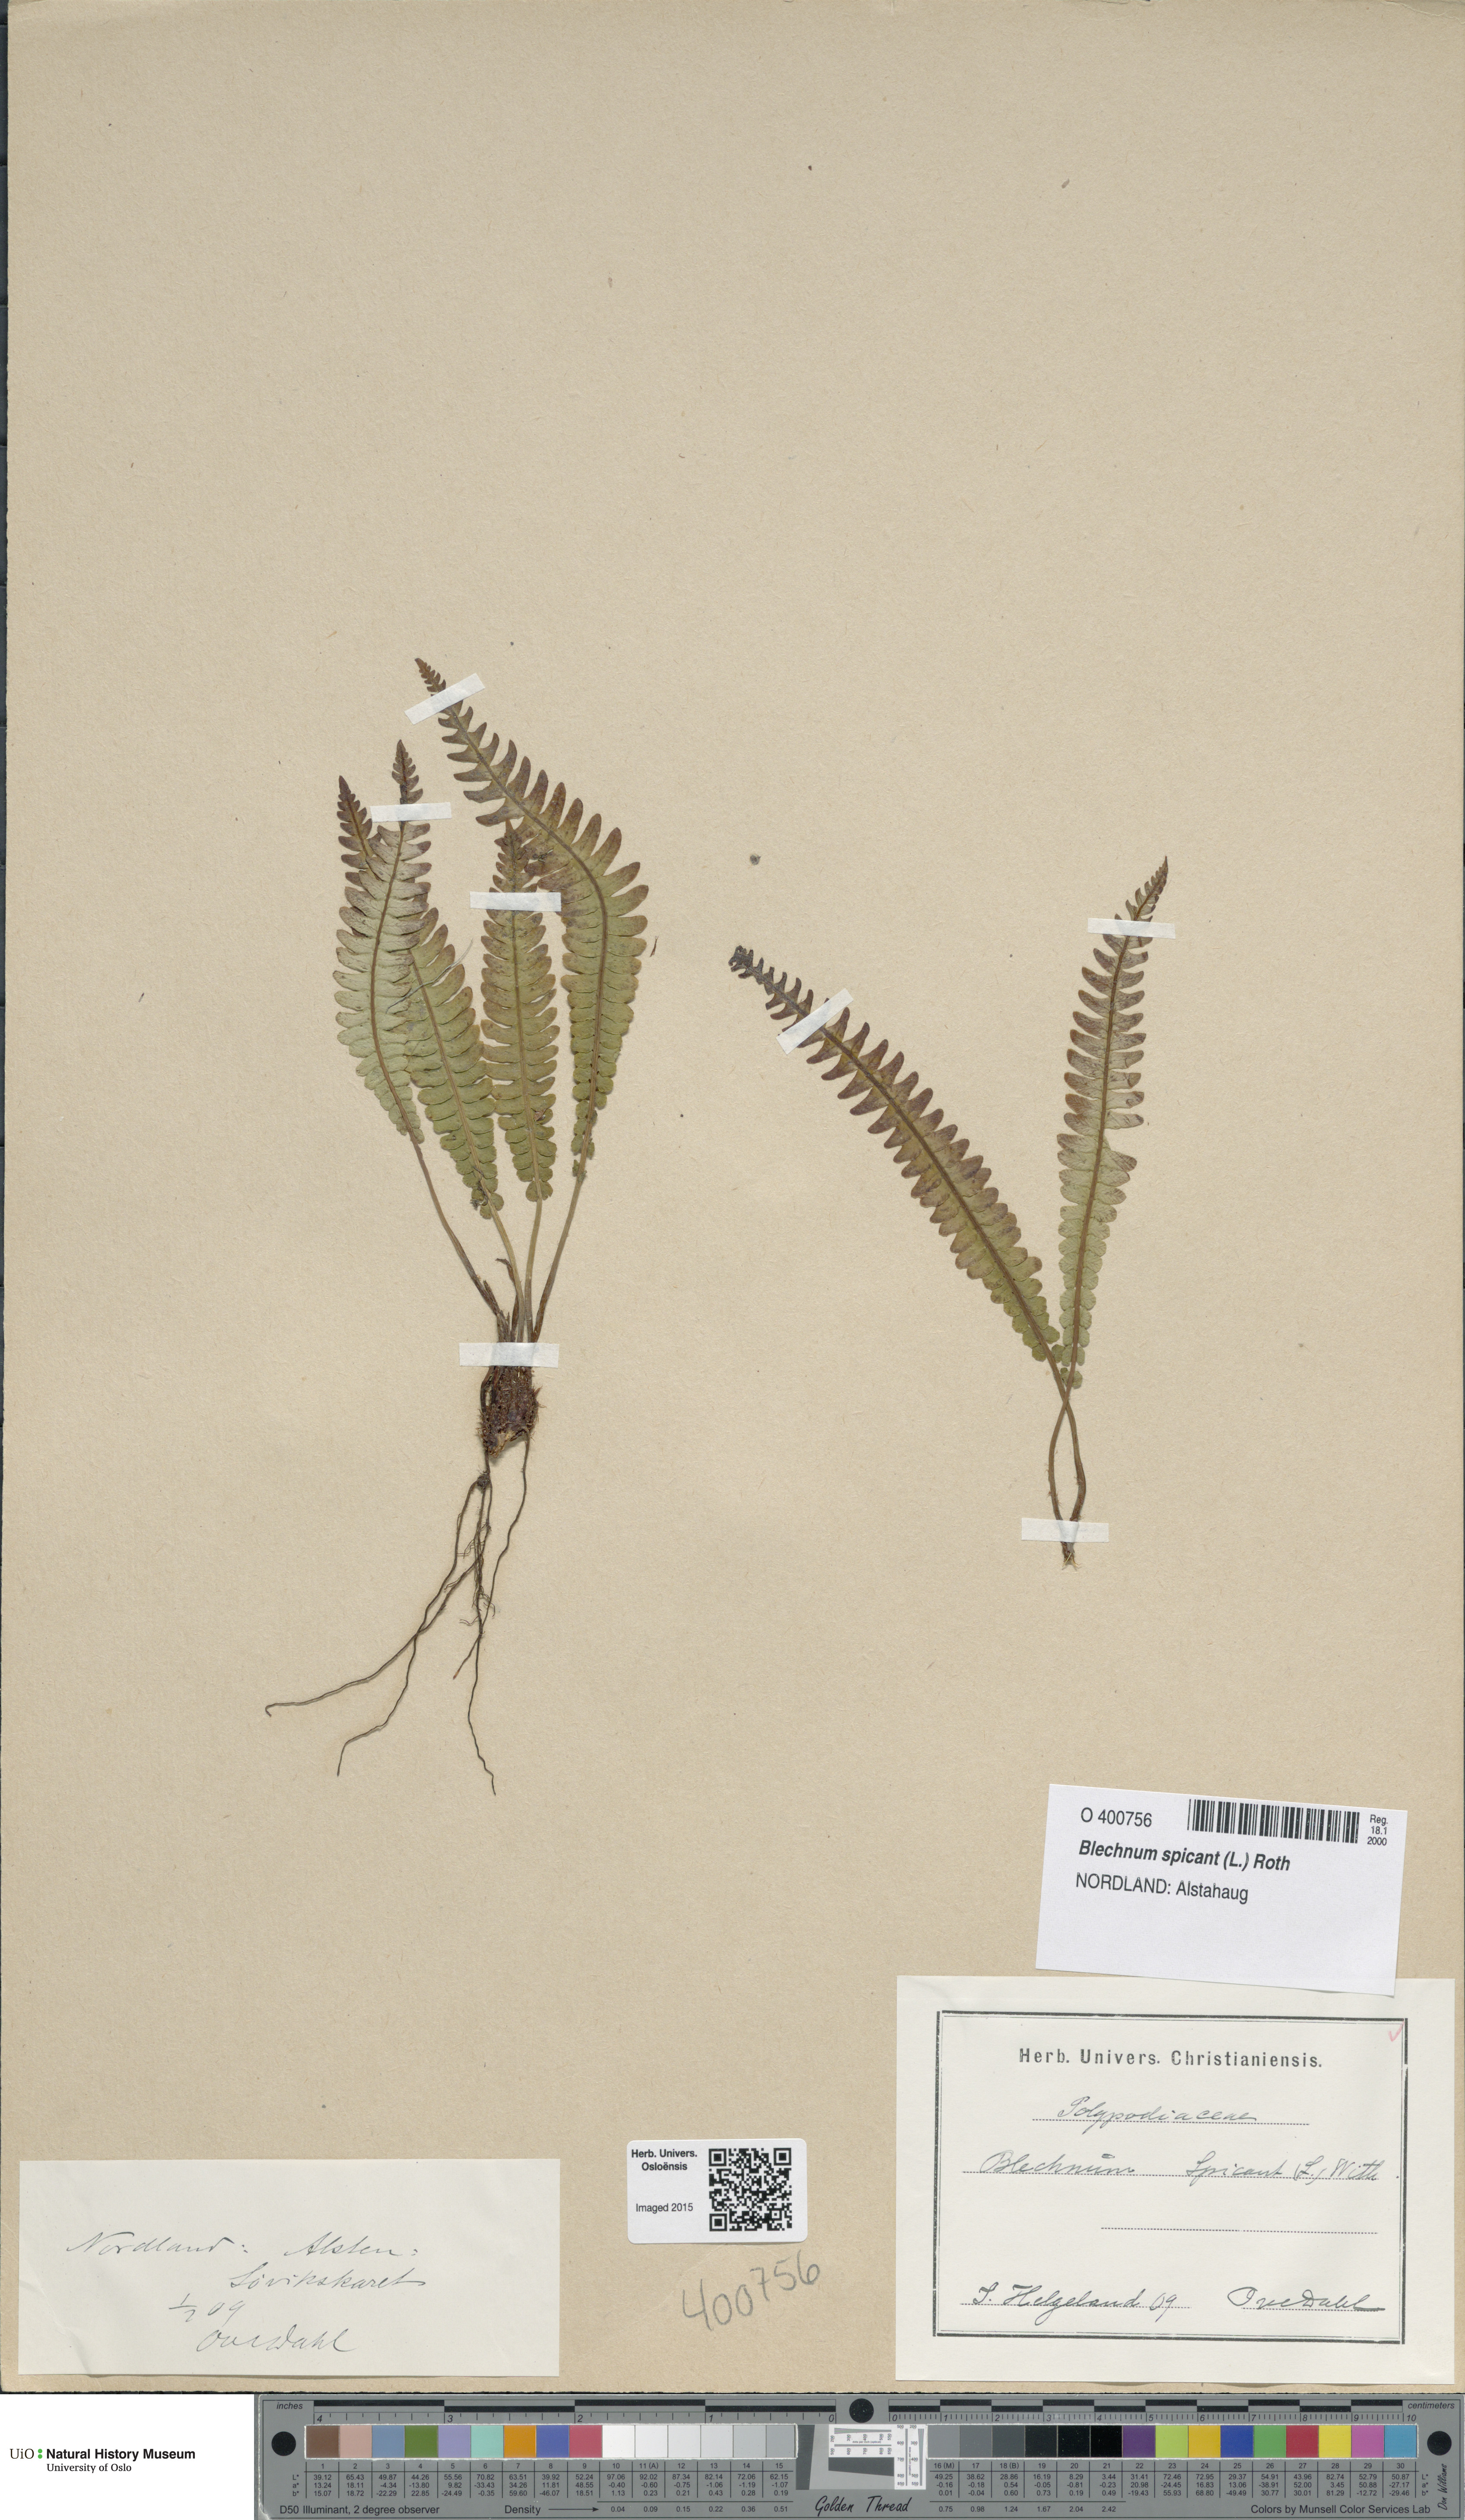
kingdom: Plantae
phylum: Tracheophyta
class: Polypodiopsida
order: Polypodiales
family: Blechnaceae
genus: Struthiopteris
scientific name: Struthiopteris spicant
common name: Deer fern
